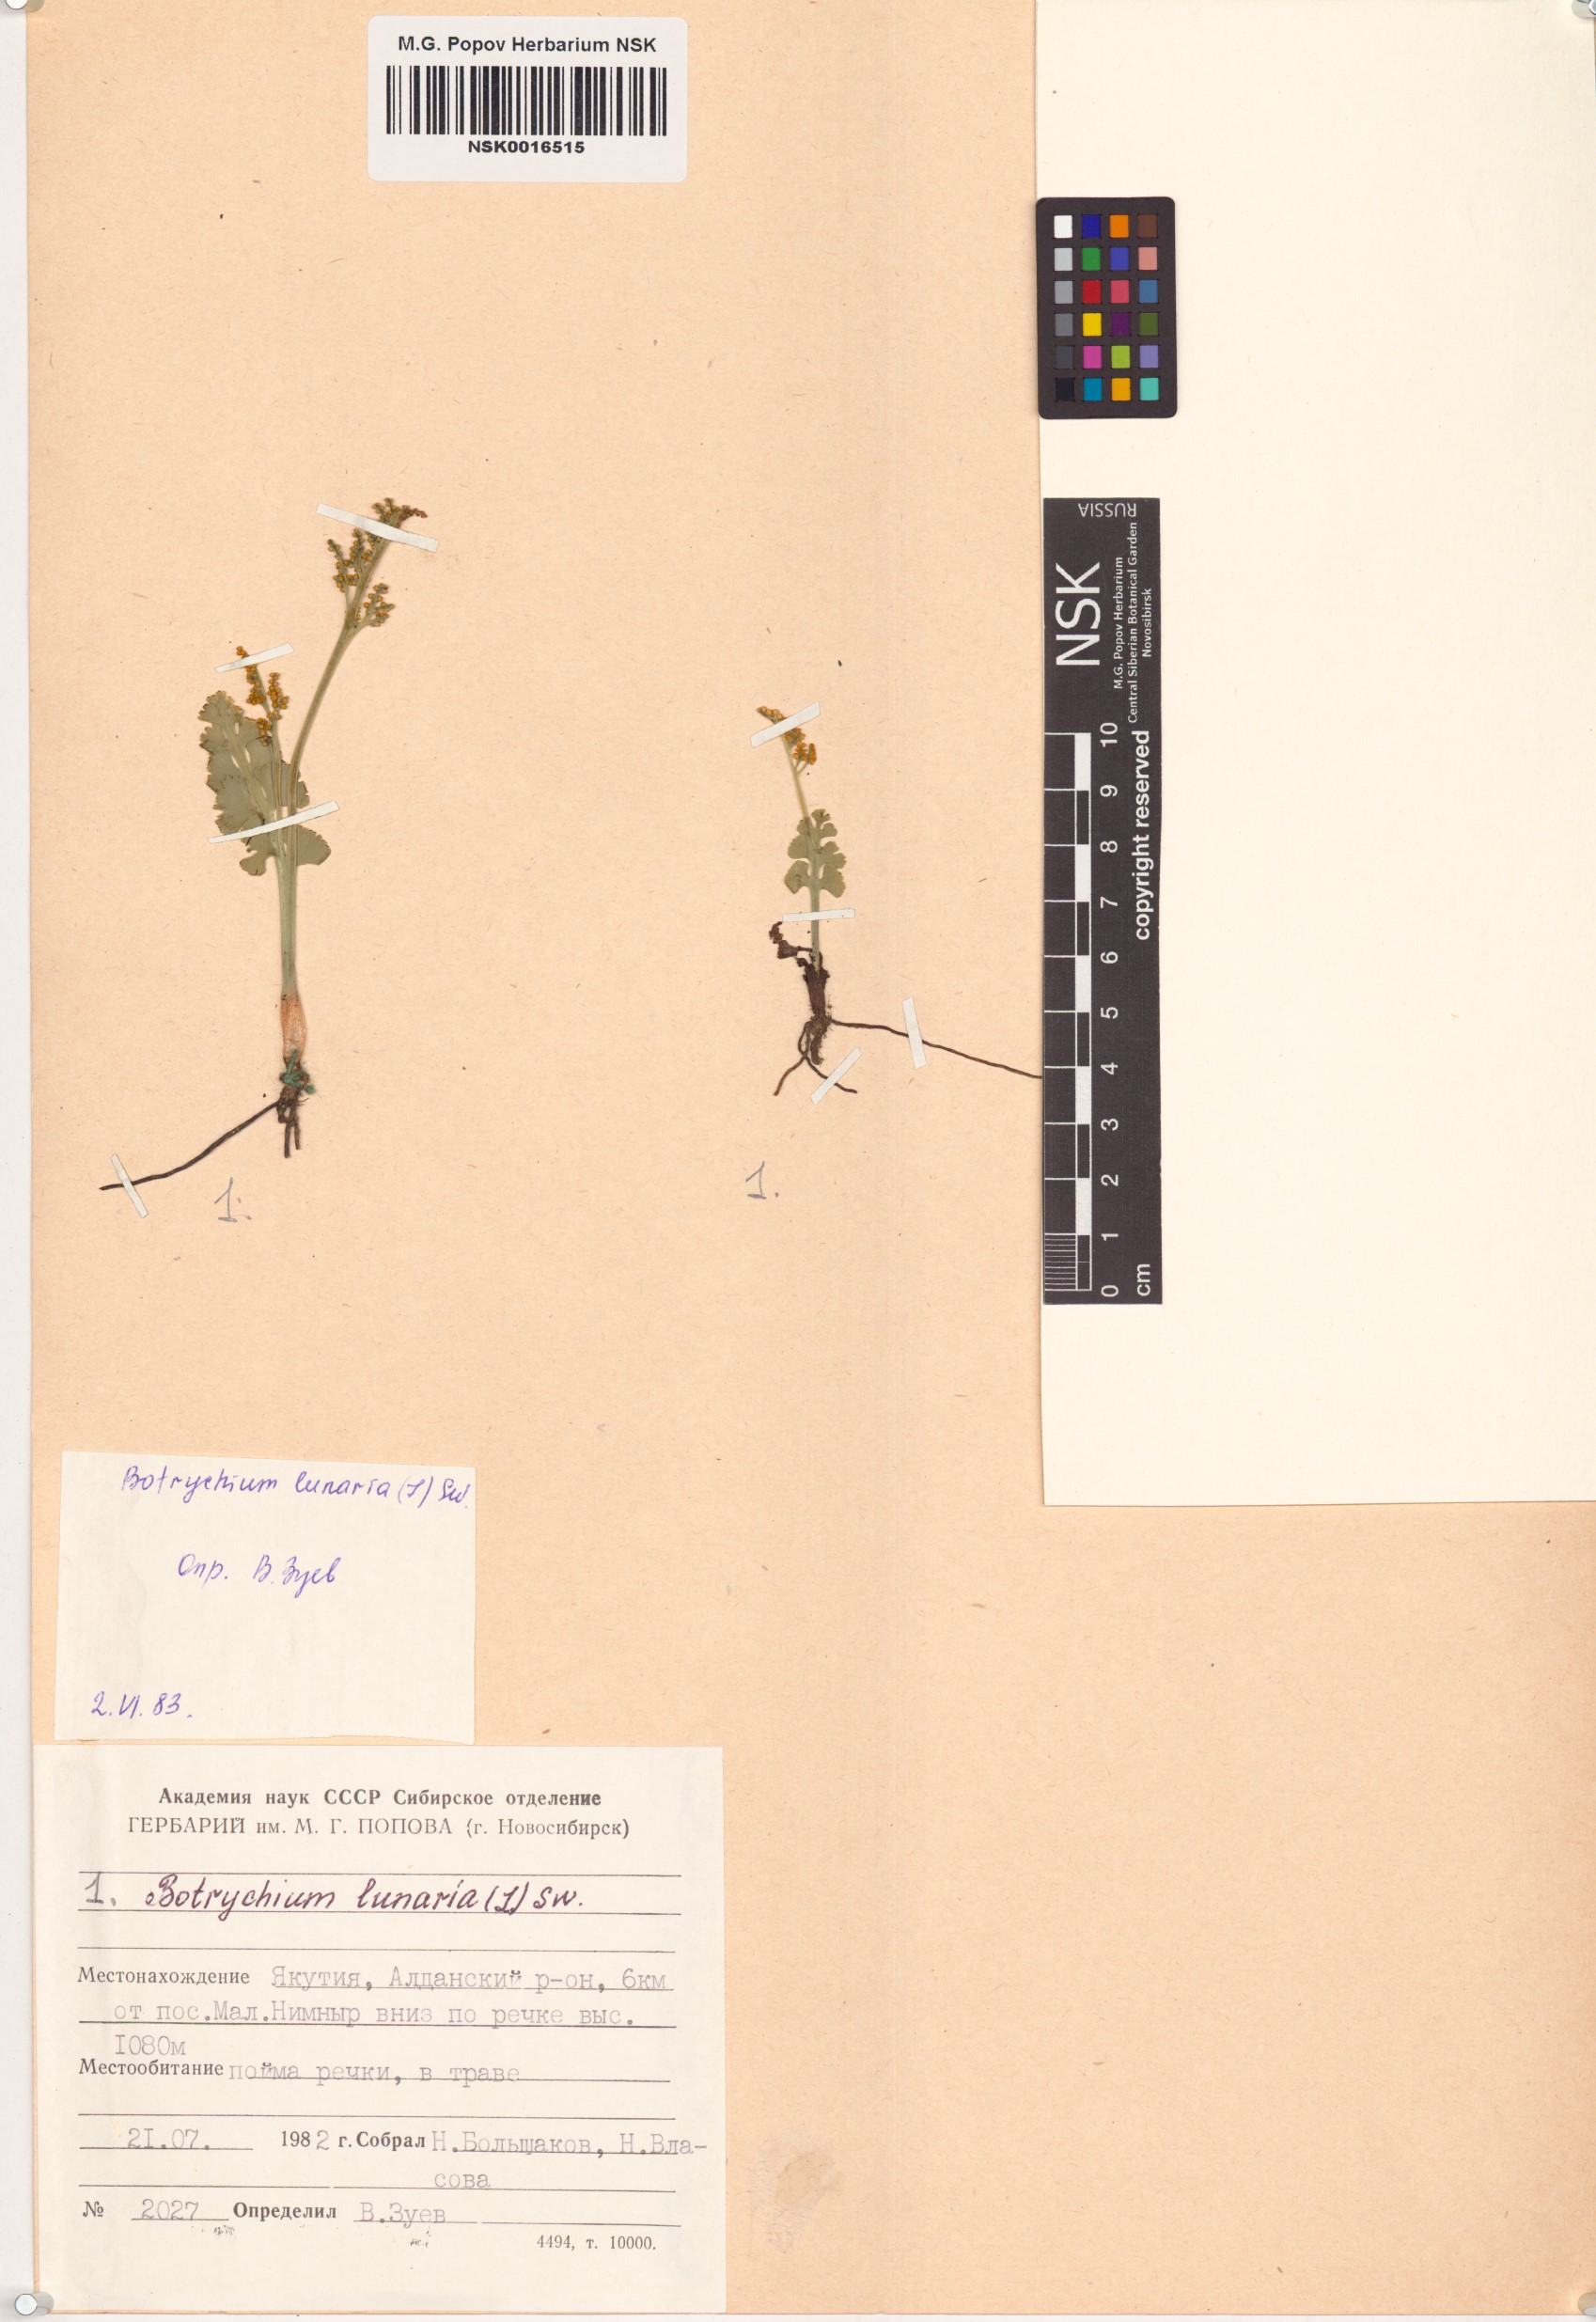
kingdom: Plantae
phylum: Tracheophyta
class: Polypodiopsida
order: Ophioglossales
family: Ophioglossaceae
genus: Botrychium
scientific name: Botrychium lunaria
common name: Moonwort
